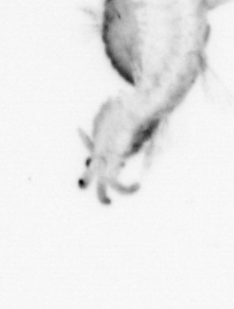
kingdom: Animalia
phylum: Annelida
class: Polychaeta
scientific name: Polychaeta
